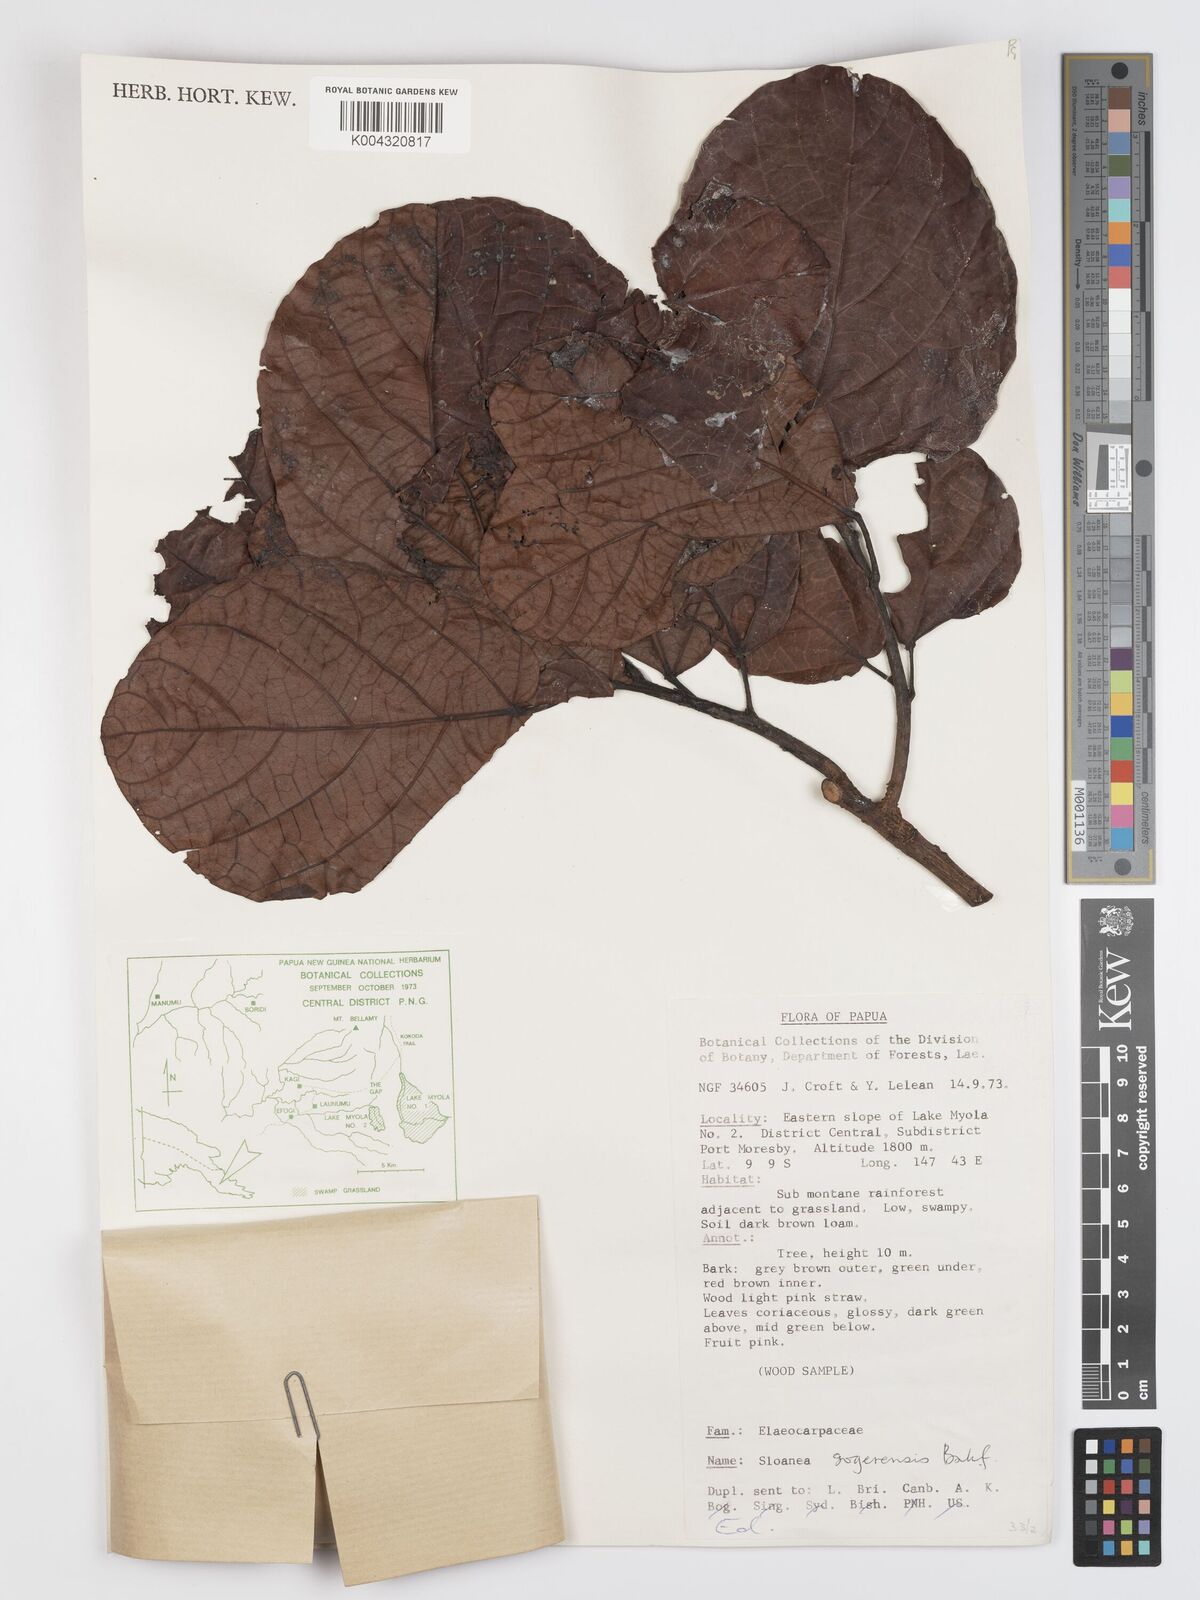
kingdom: Plantae
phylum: Tracheophyta
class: Magnoliopsida
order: Oxalidales
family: Elaeocarpaceae
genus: Sloanea
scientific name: Sloanea sogerensis
